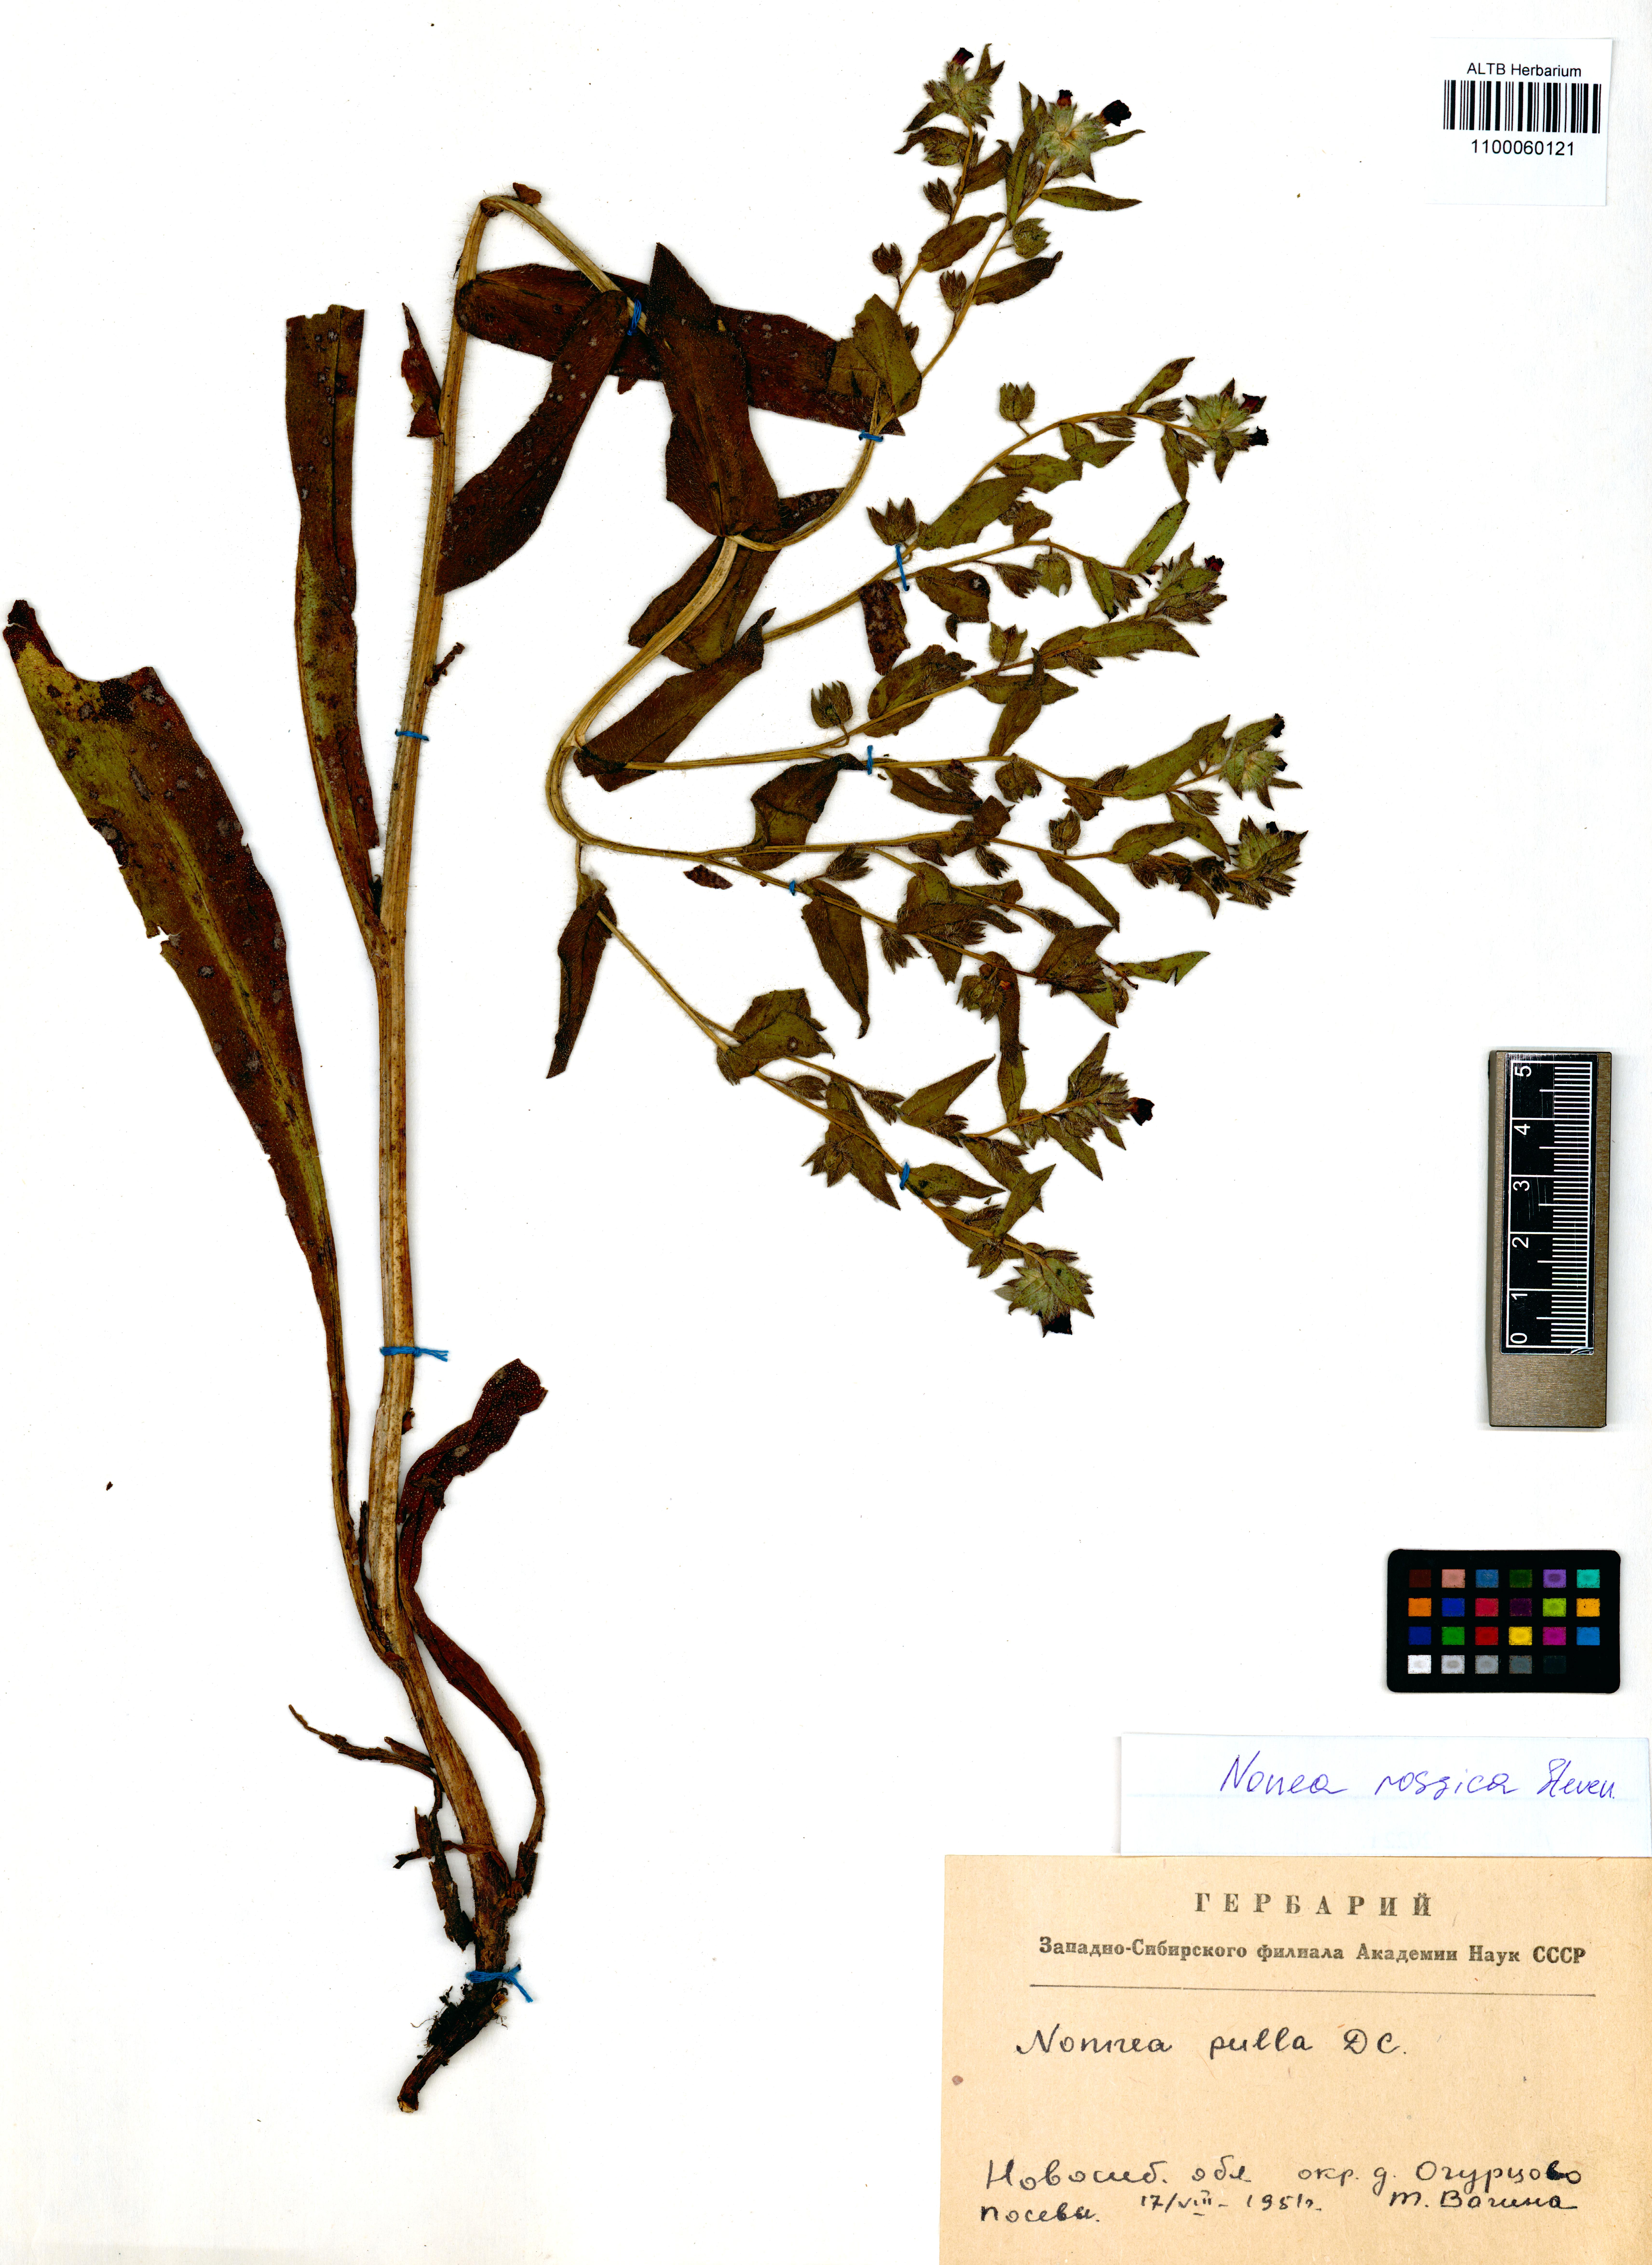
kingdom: Plantae
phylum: Tracheophyta
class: Magnoliopsida
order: Boraginales
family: Boraginaceae
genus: Nonea
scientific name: Nonea pulla
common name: Brown nonea
